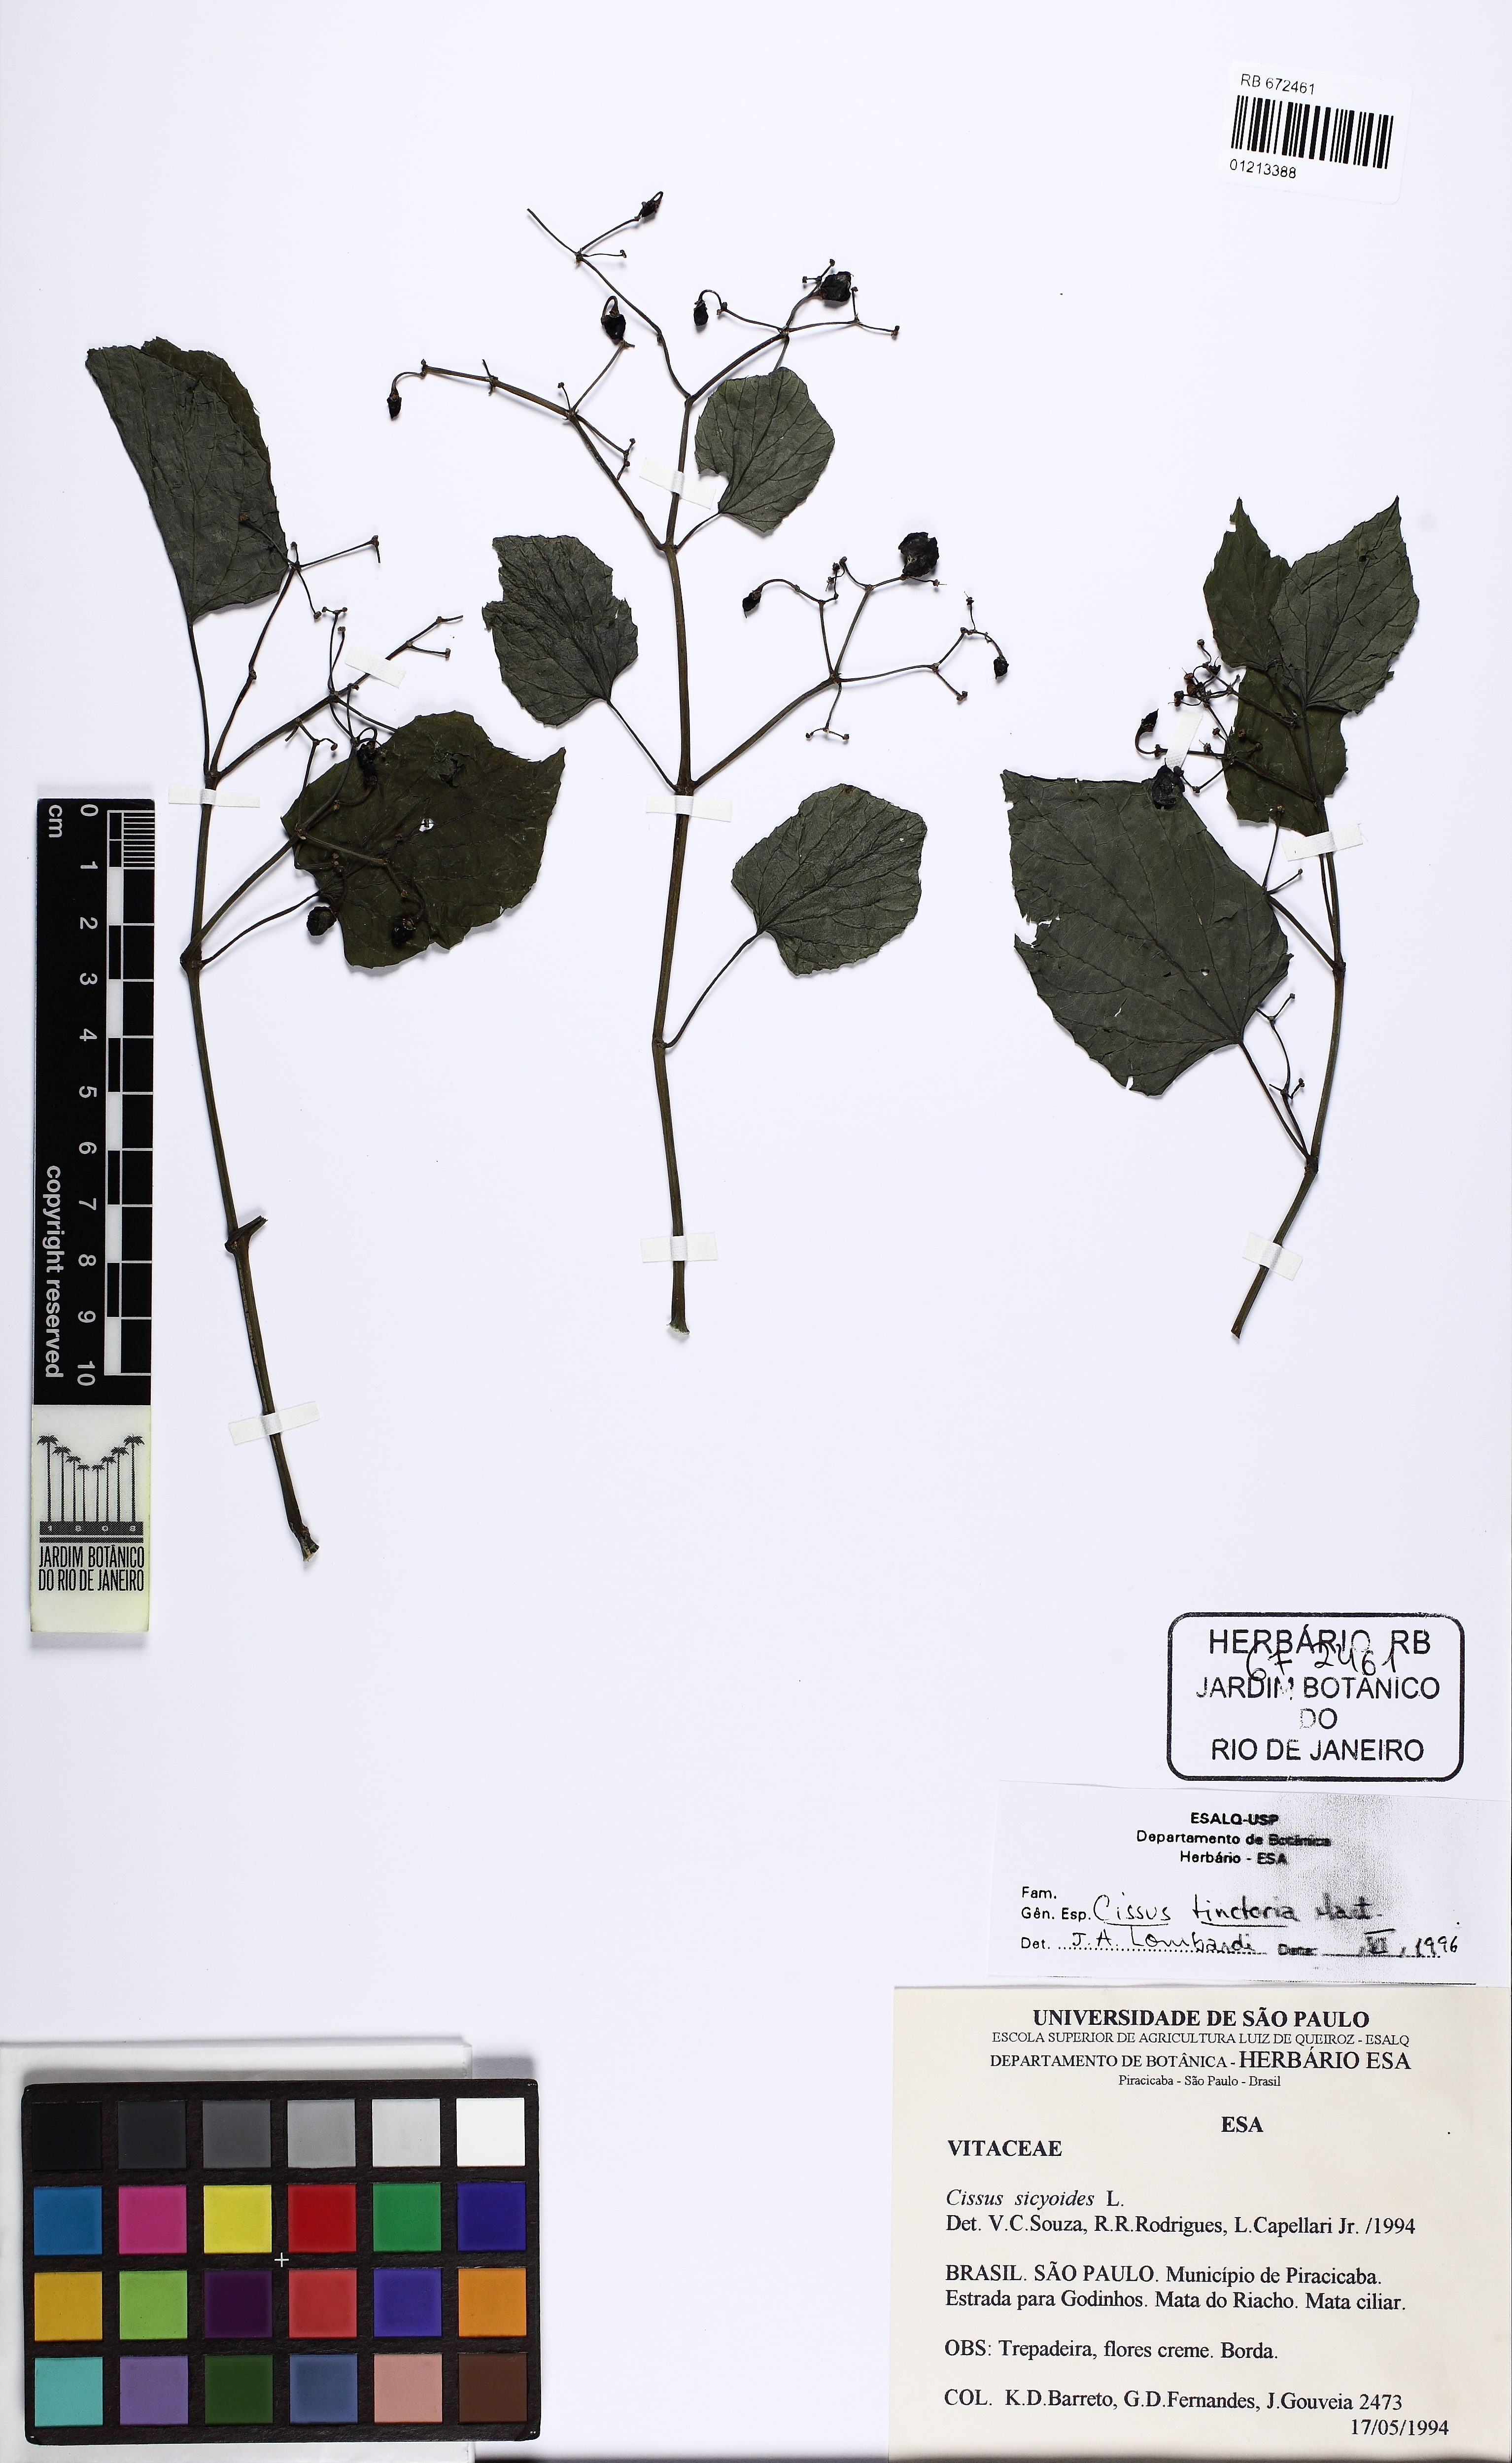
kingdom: Plantae
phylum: Tracheophyta
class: Magnoliopsida
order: Vitales
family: Vitaceae
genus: Cissus
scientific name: Cissus tinctoria
